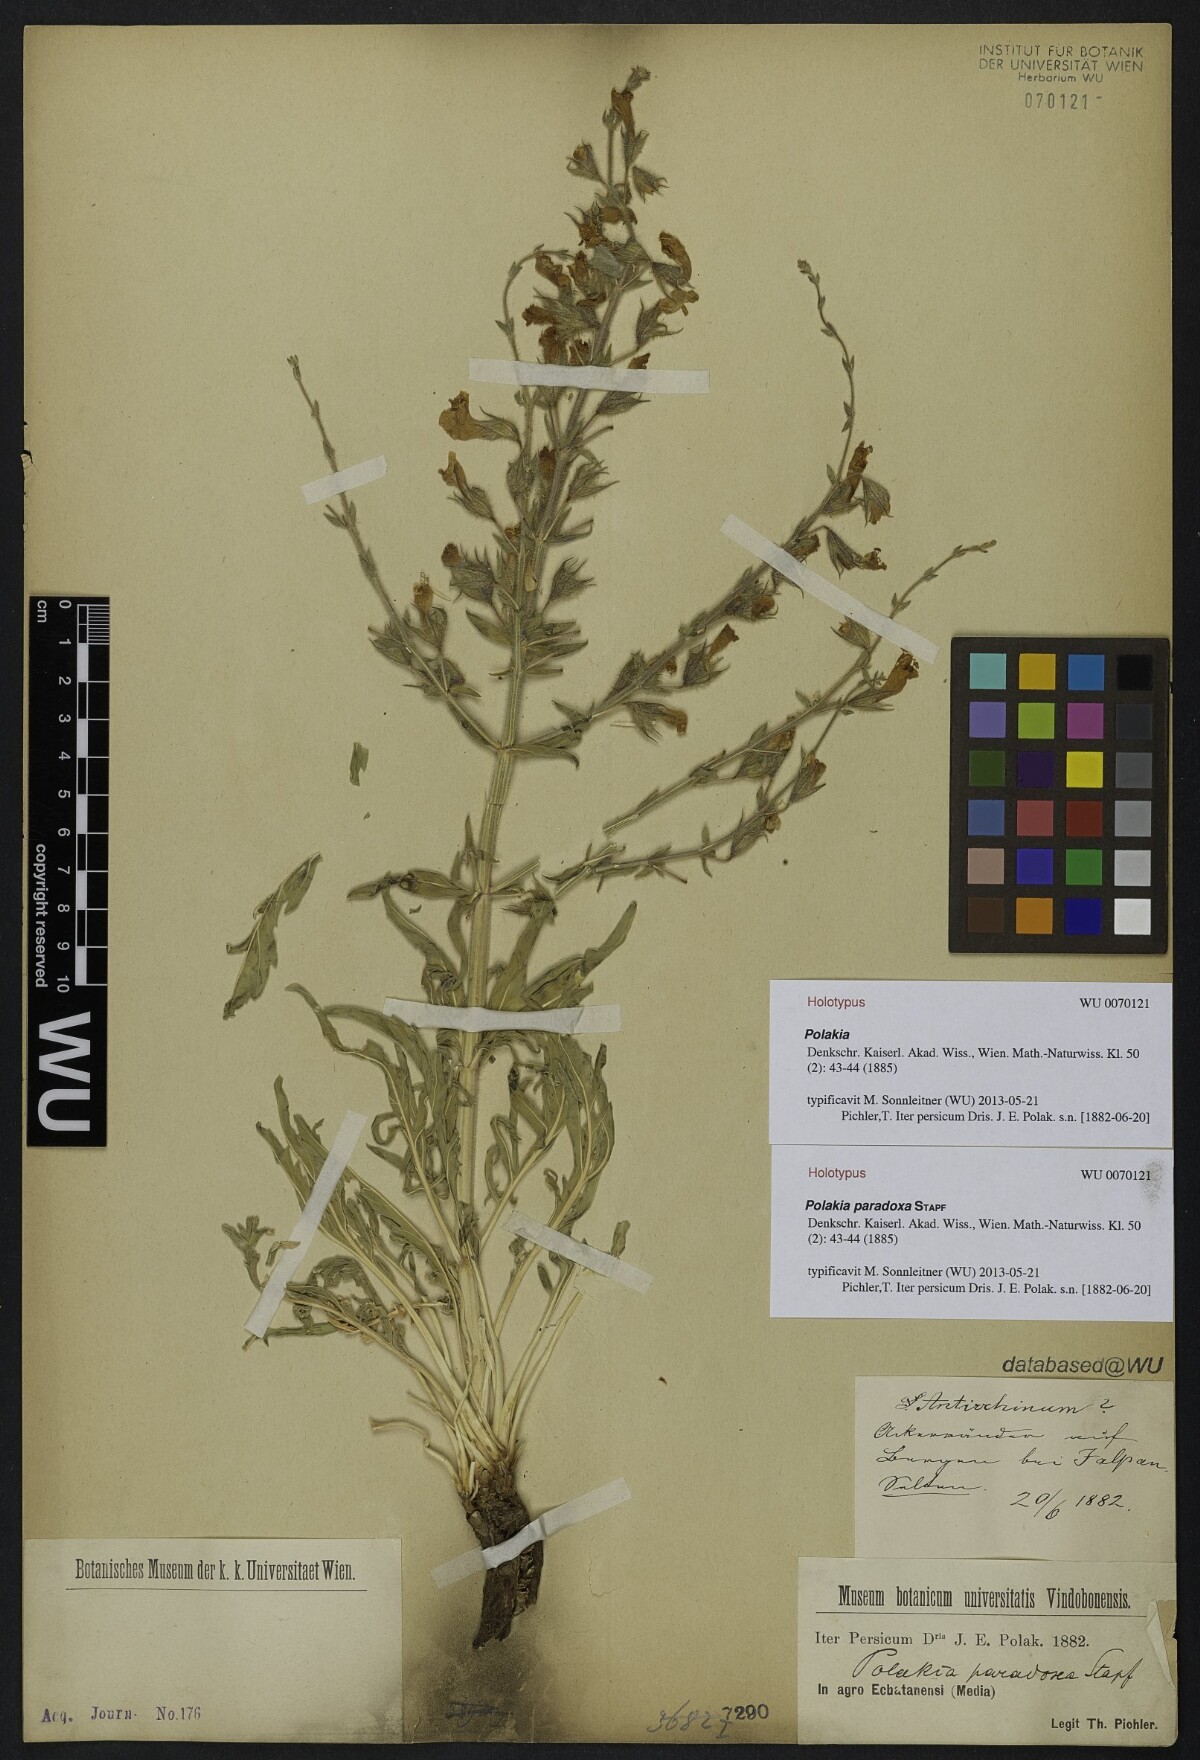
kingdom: Plantae
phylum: Tracheophyta
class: Magnoliopsida
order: Lamiales
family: Lamiaceae
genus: Salvia
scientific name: Salvia aristata
